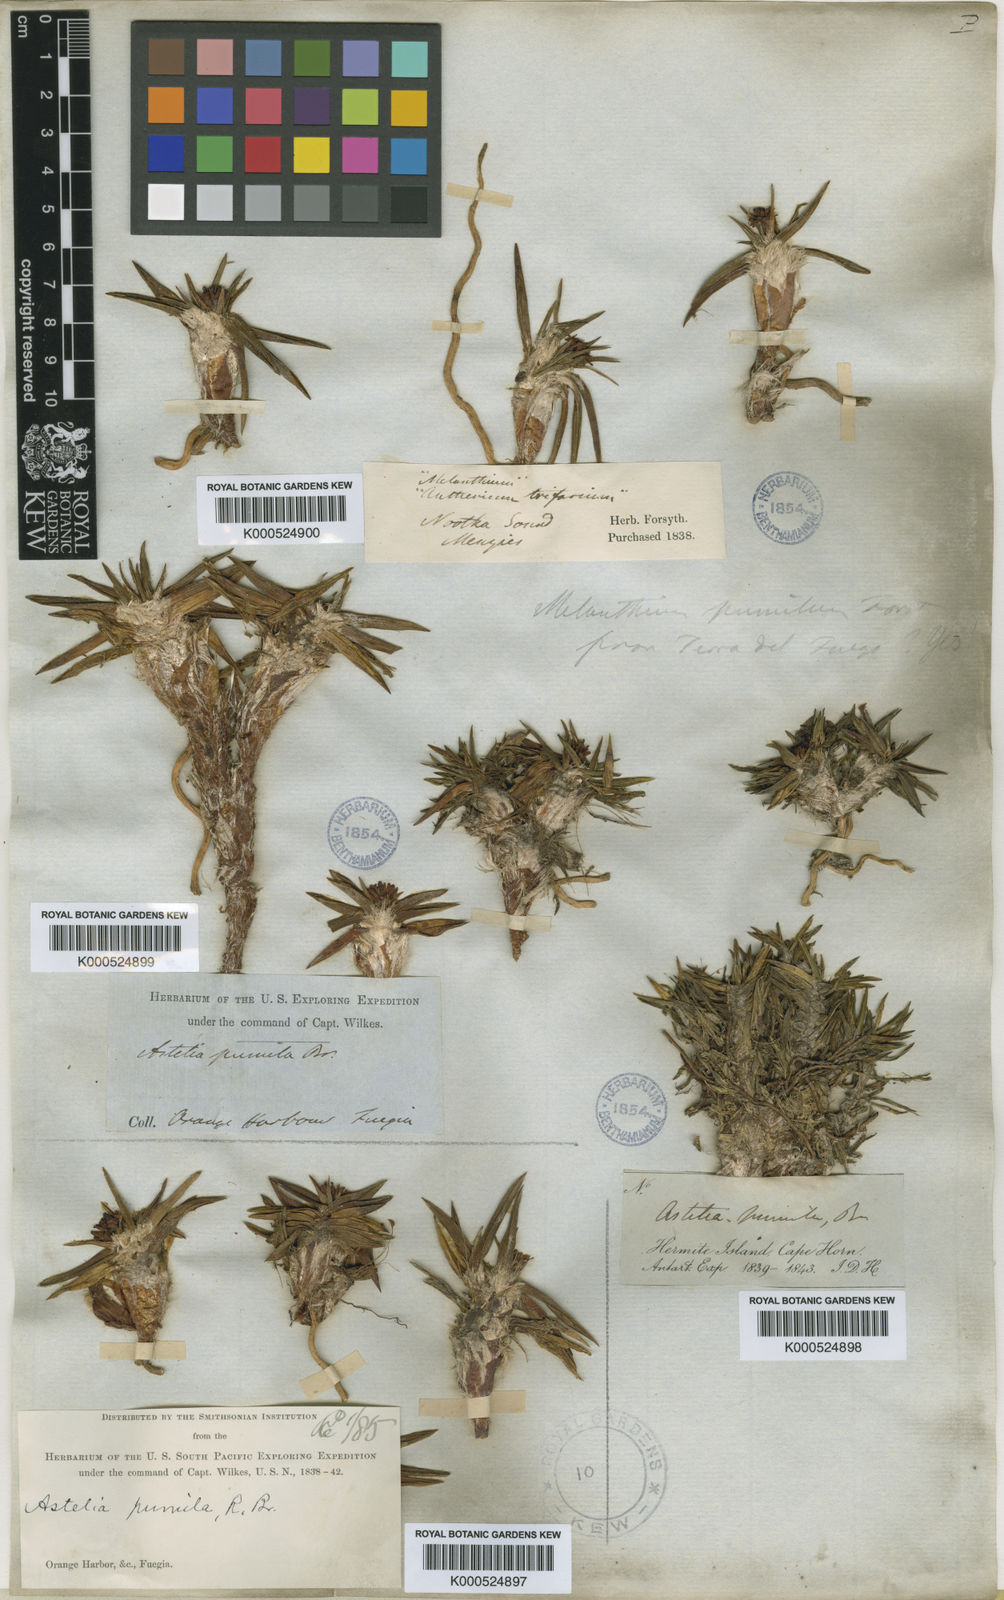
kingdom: Plantae
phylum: Tracheophyta
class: Liliopsida
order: Asparagales
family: Asteliaceae
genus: Astelia
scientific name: Astelia hastata
